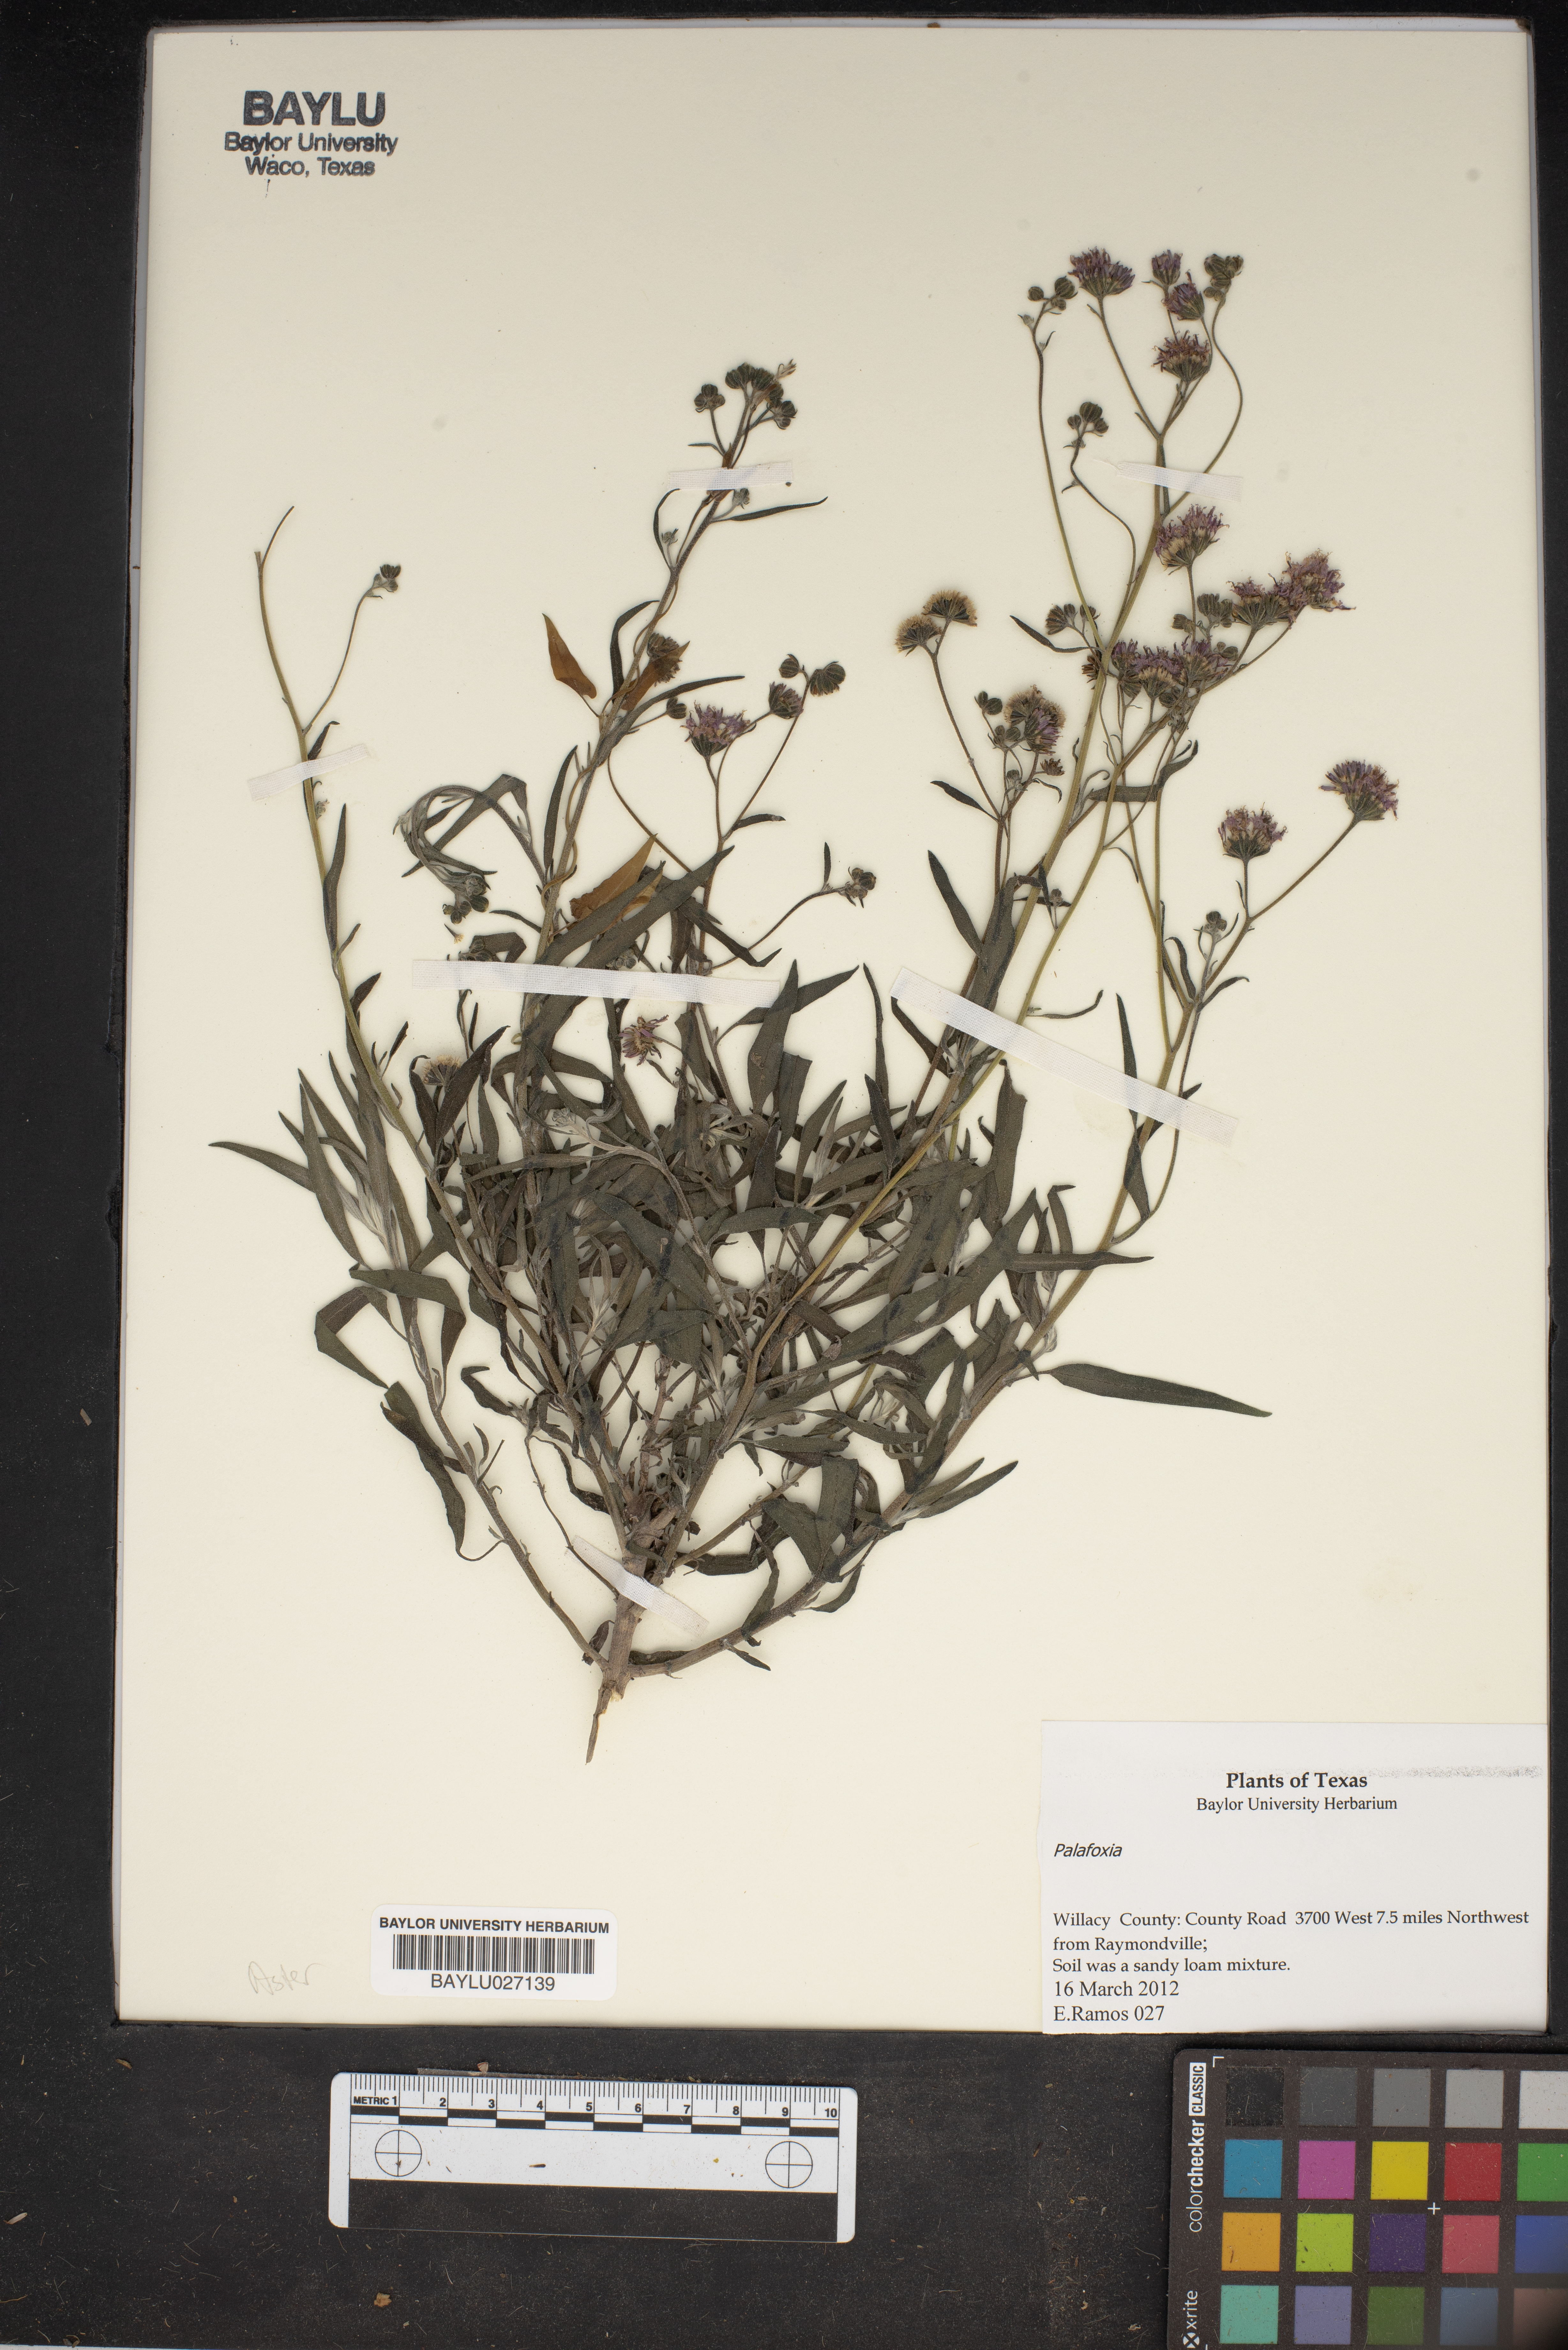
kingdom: Plantae
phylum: Tracheophyta
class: Magnoliopsida
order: Asterales
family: Asteraceae
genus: Palafoxia
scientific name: Palafoxia
